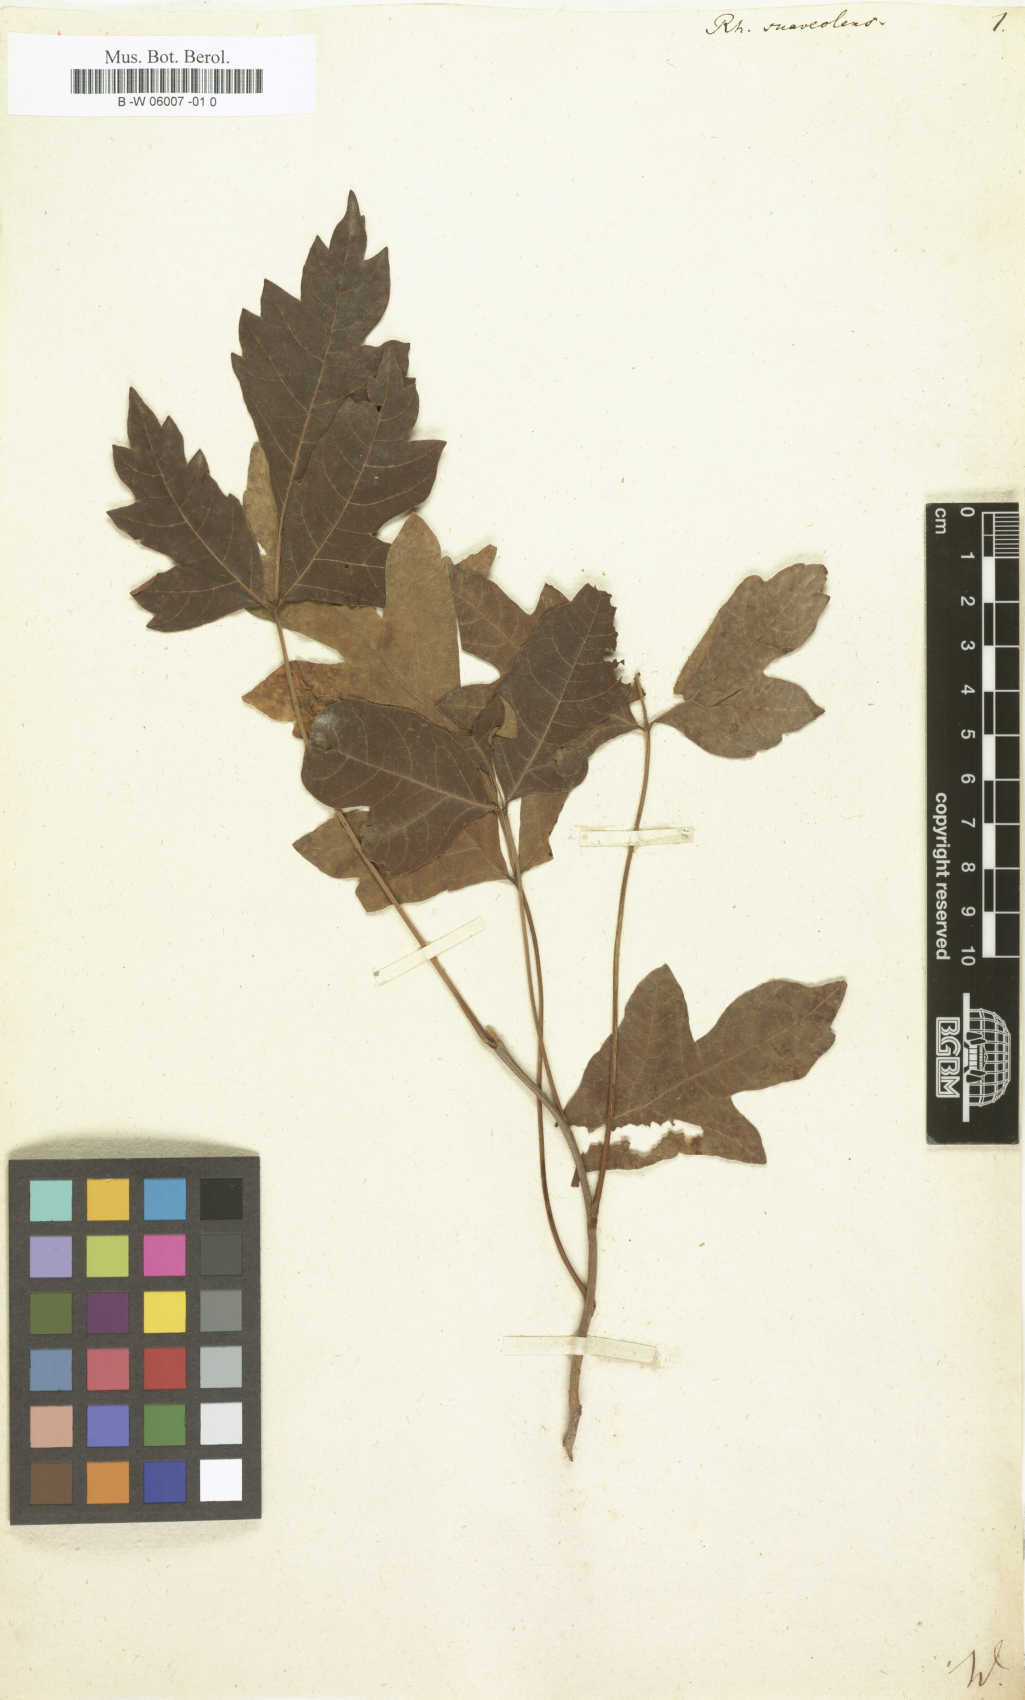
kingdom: Plantae
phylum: Tracheophyta
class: Magnoliopsida
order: Sapindales
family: Anacardiaceae
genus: Rhus
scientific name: Rhus aromatica
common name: Aromatic sumac
